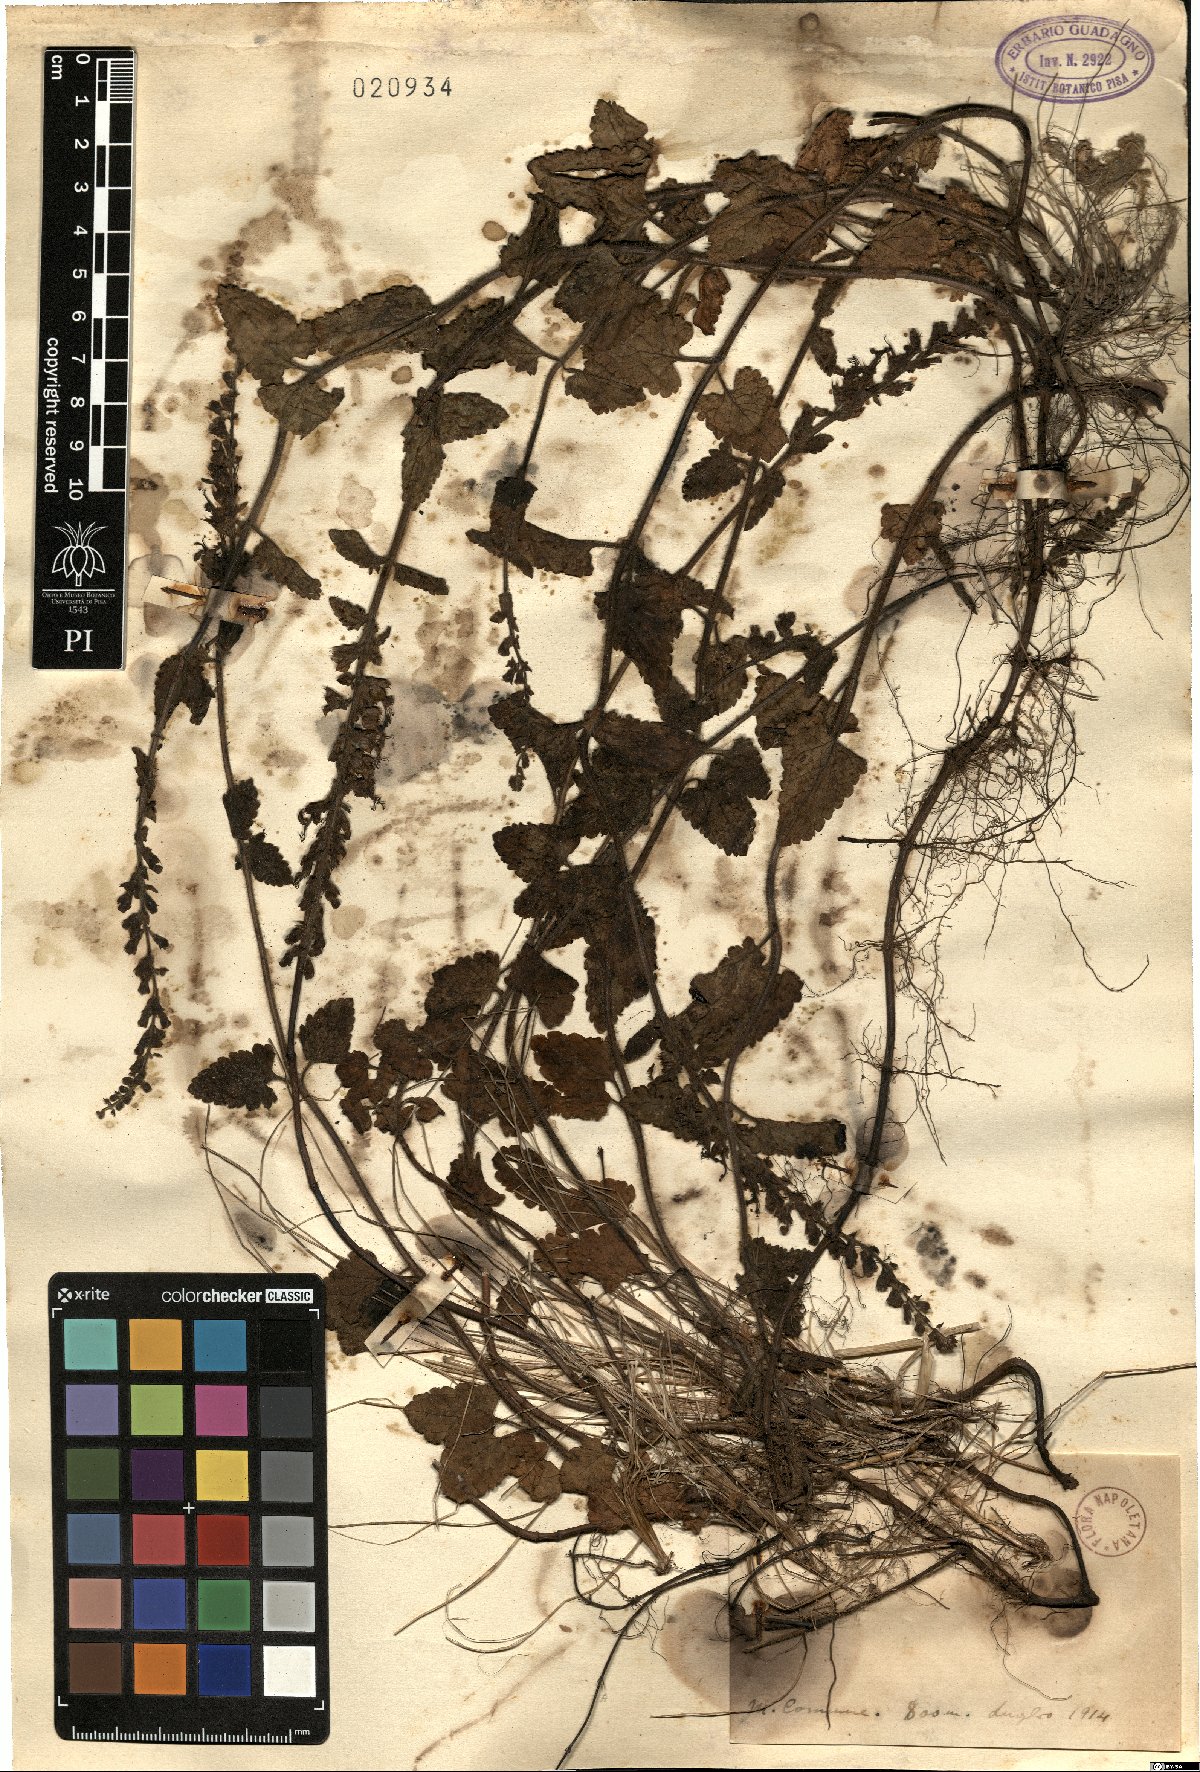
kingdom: Plantae
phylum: Tracheophyta
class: Magnoliopsida
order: Lamiales
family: Lamiaceae
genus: Teucrium
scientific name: Teucrium
